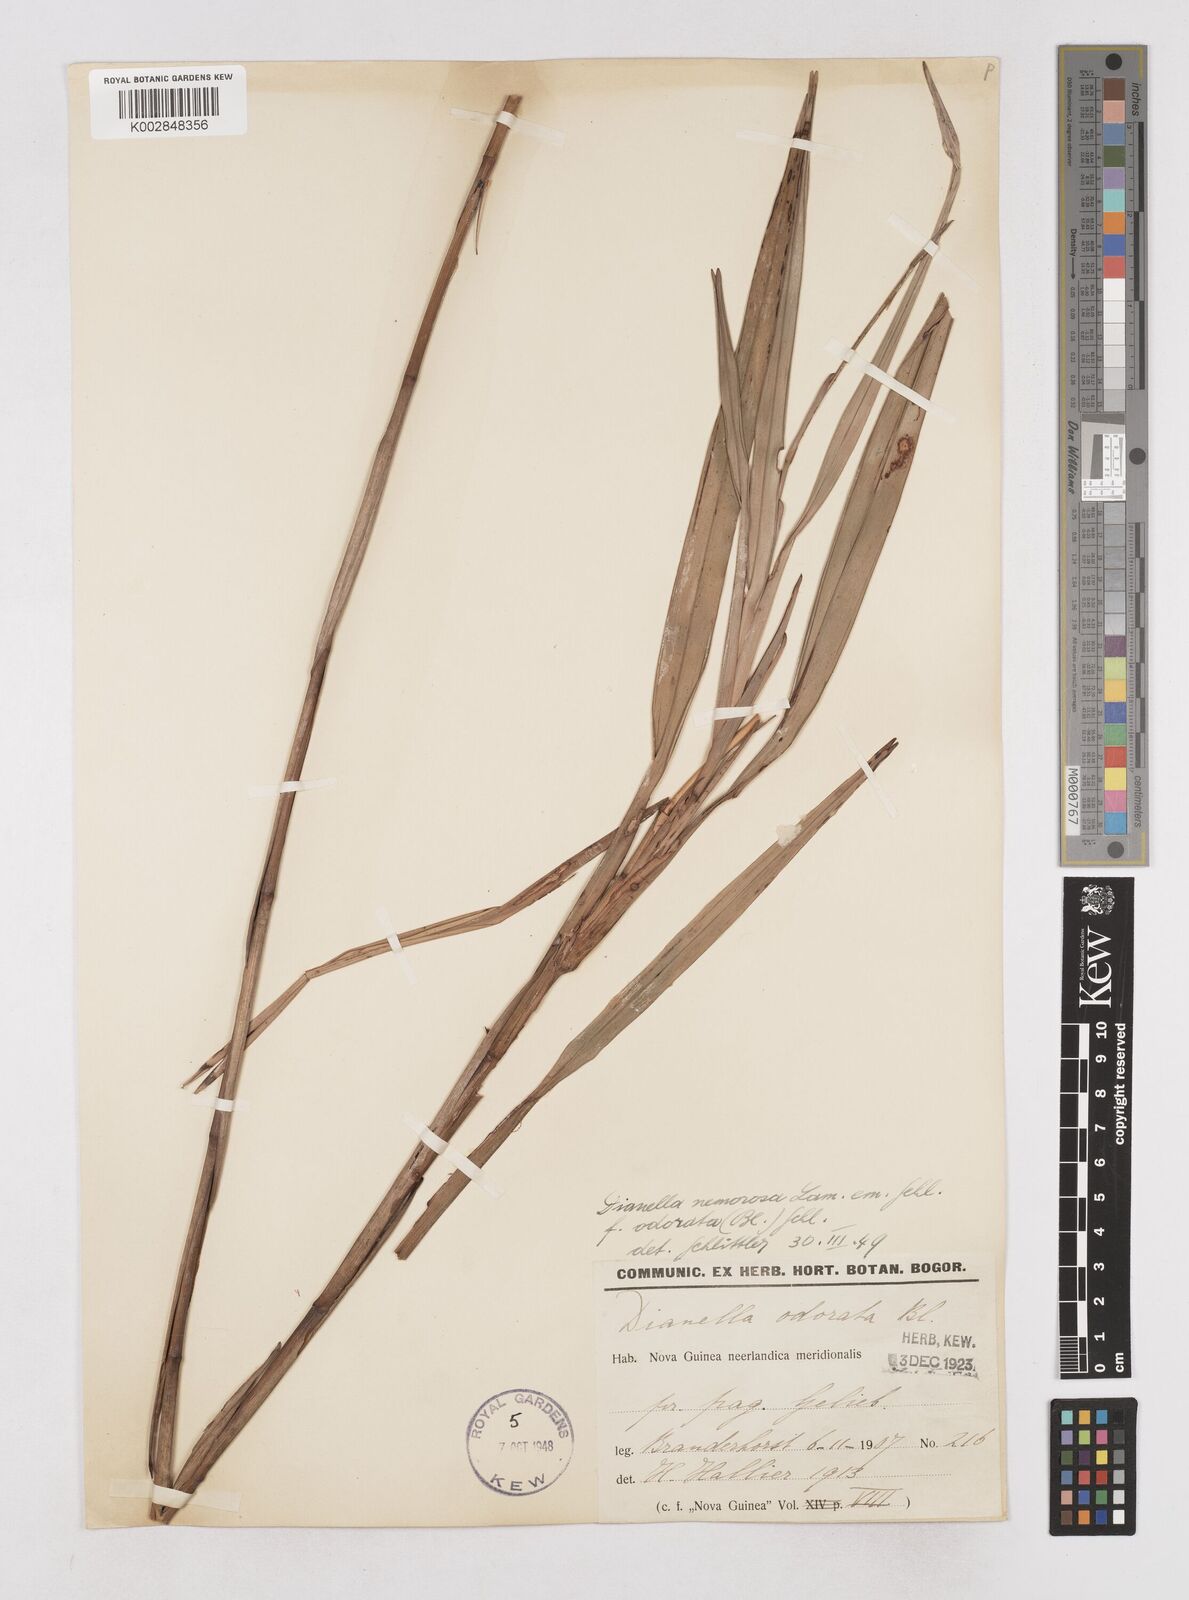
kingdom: Plantae
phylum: Tracheophyta
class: Liliopsida
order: Asparagales
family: Asphodelaceae
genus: Dianella
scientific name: Dianella ensifolia
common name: New zealand lilyplant
